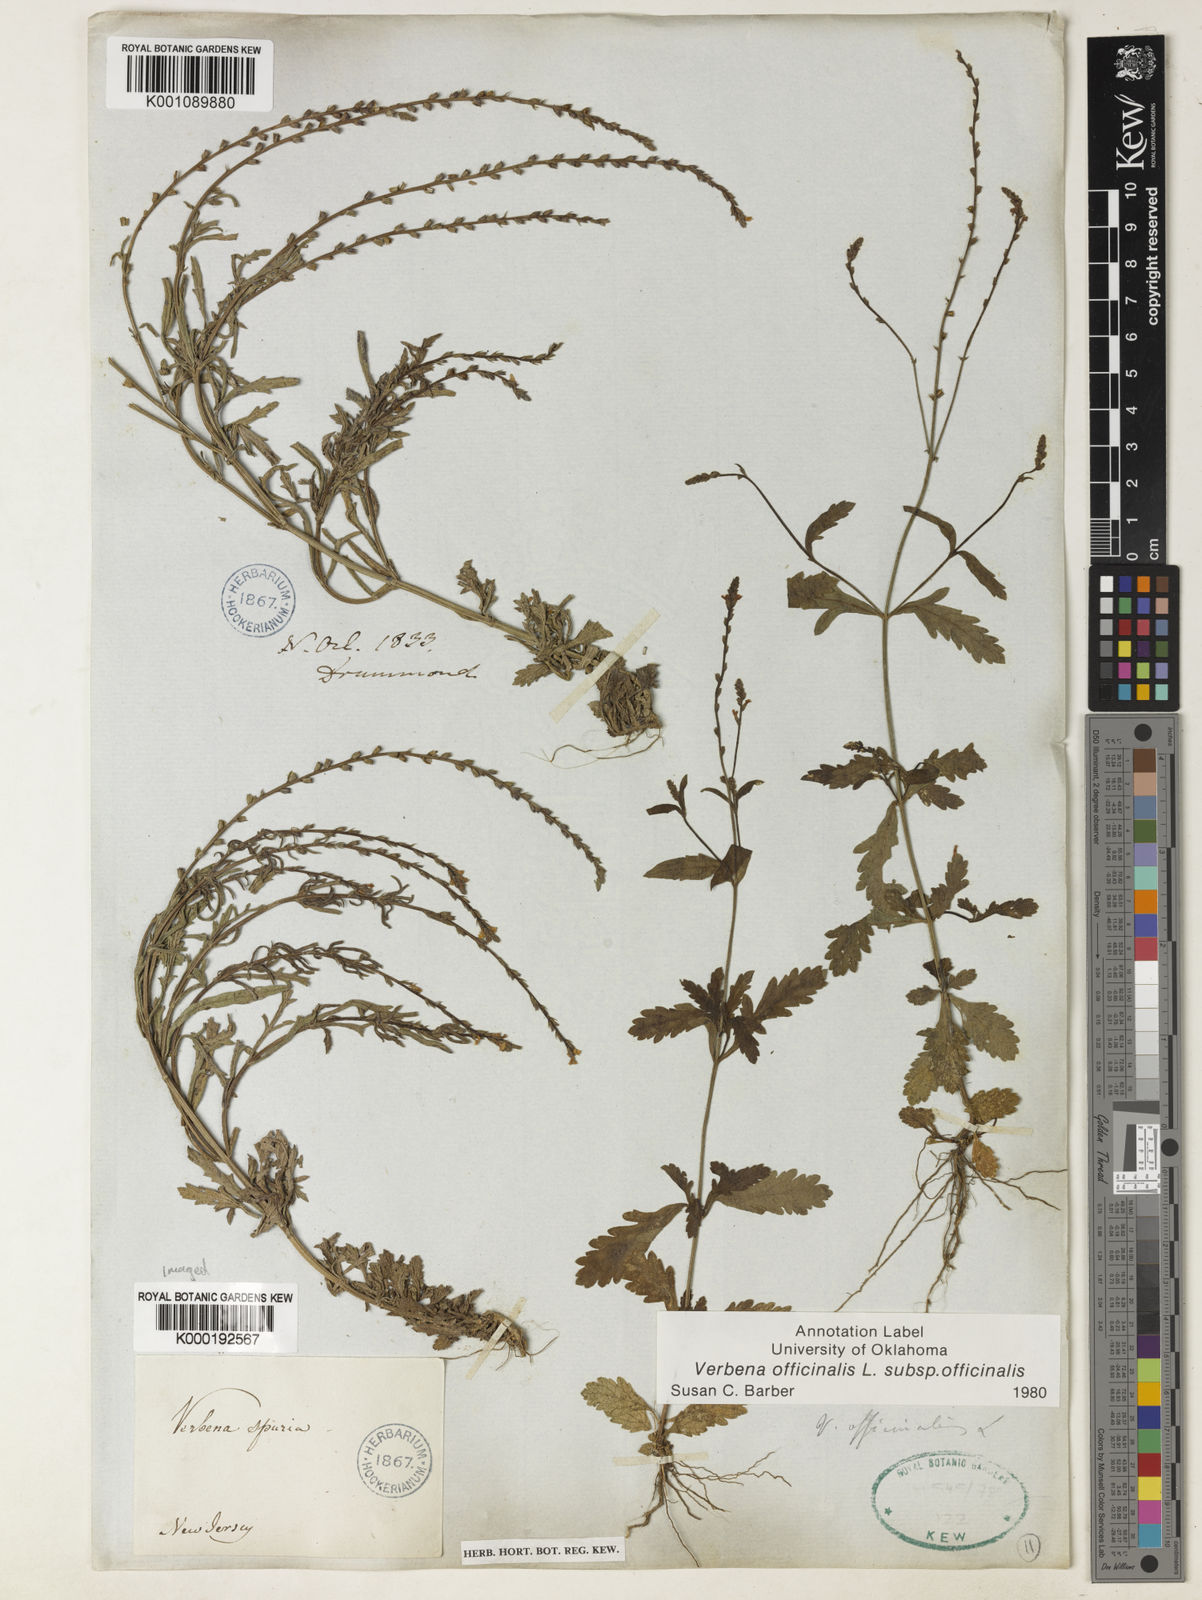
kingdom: Plantae
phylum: Tracheophyta
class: Magnoliopsida
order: Lamiales
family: Verbenaceae
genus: Verbena
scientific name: Verbena officinalis
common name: Vervain
